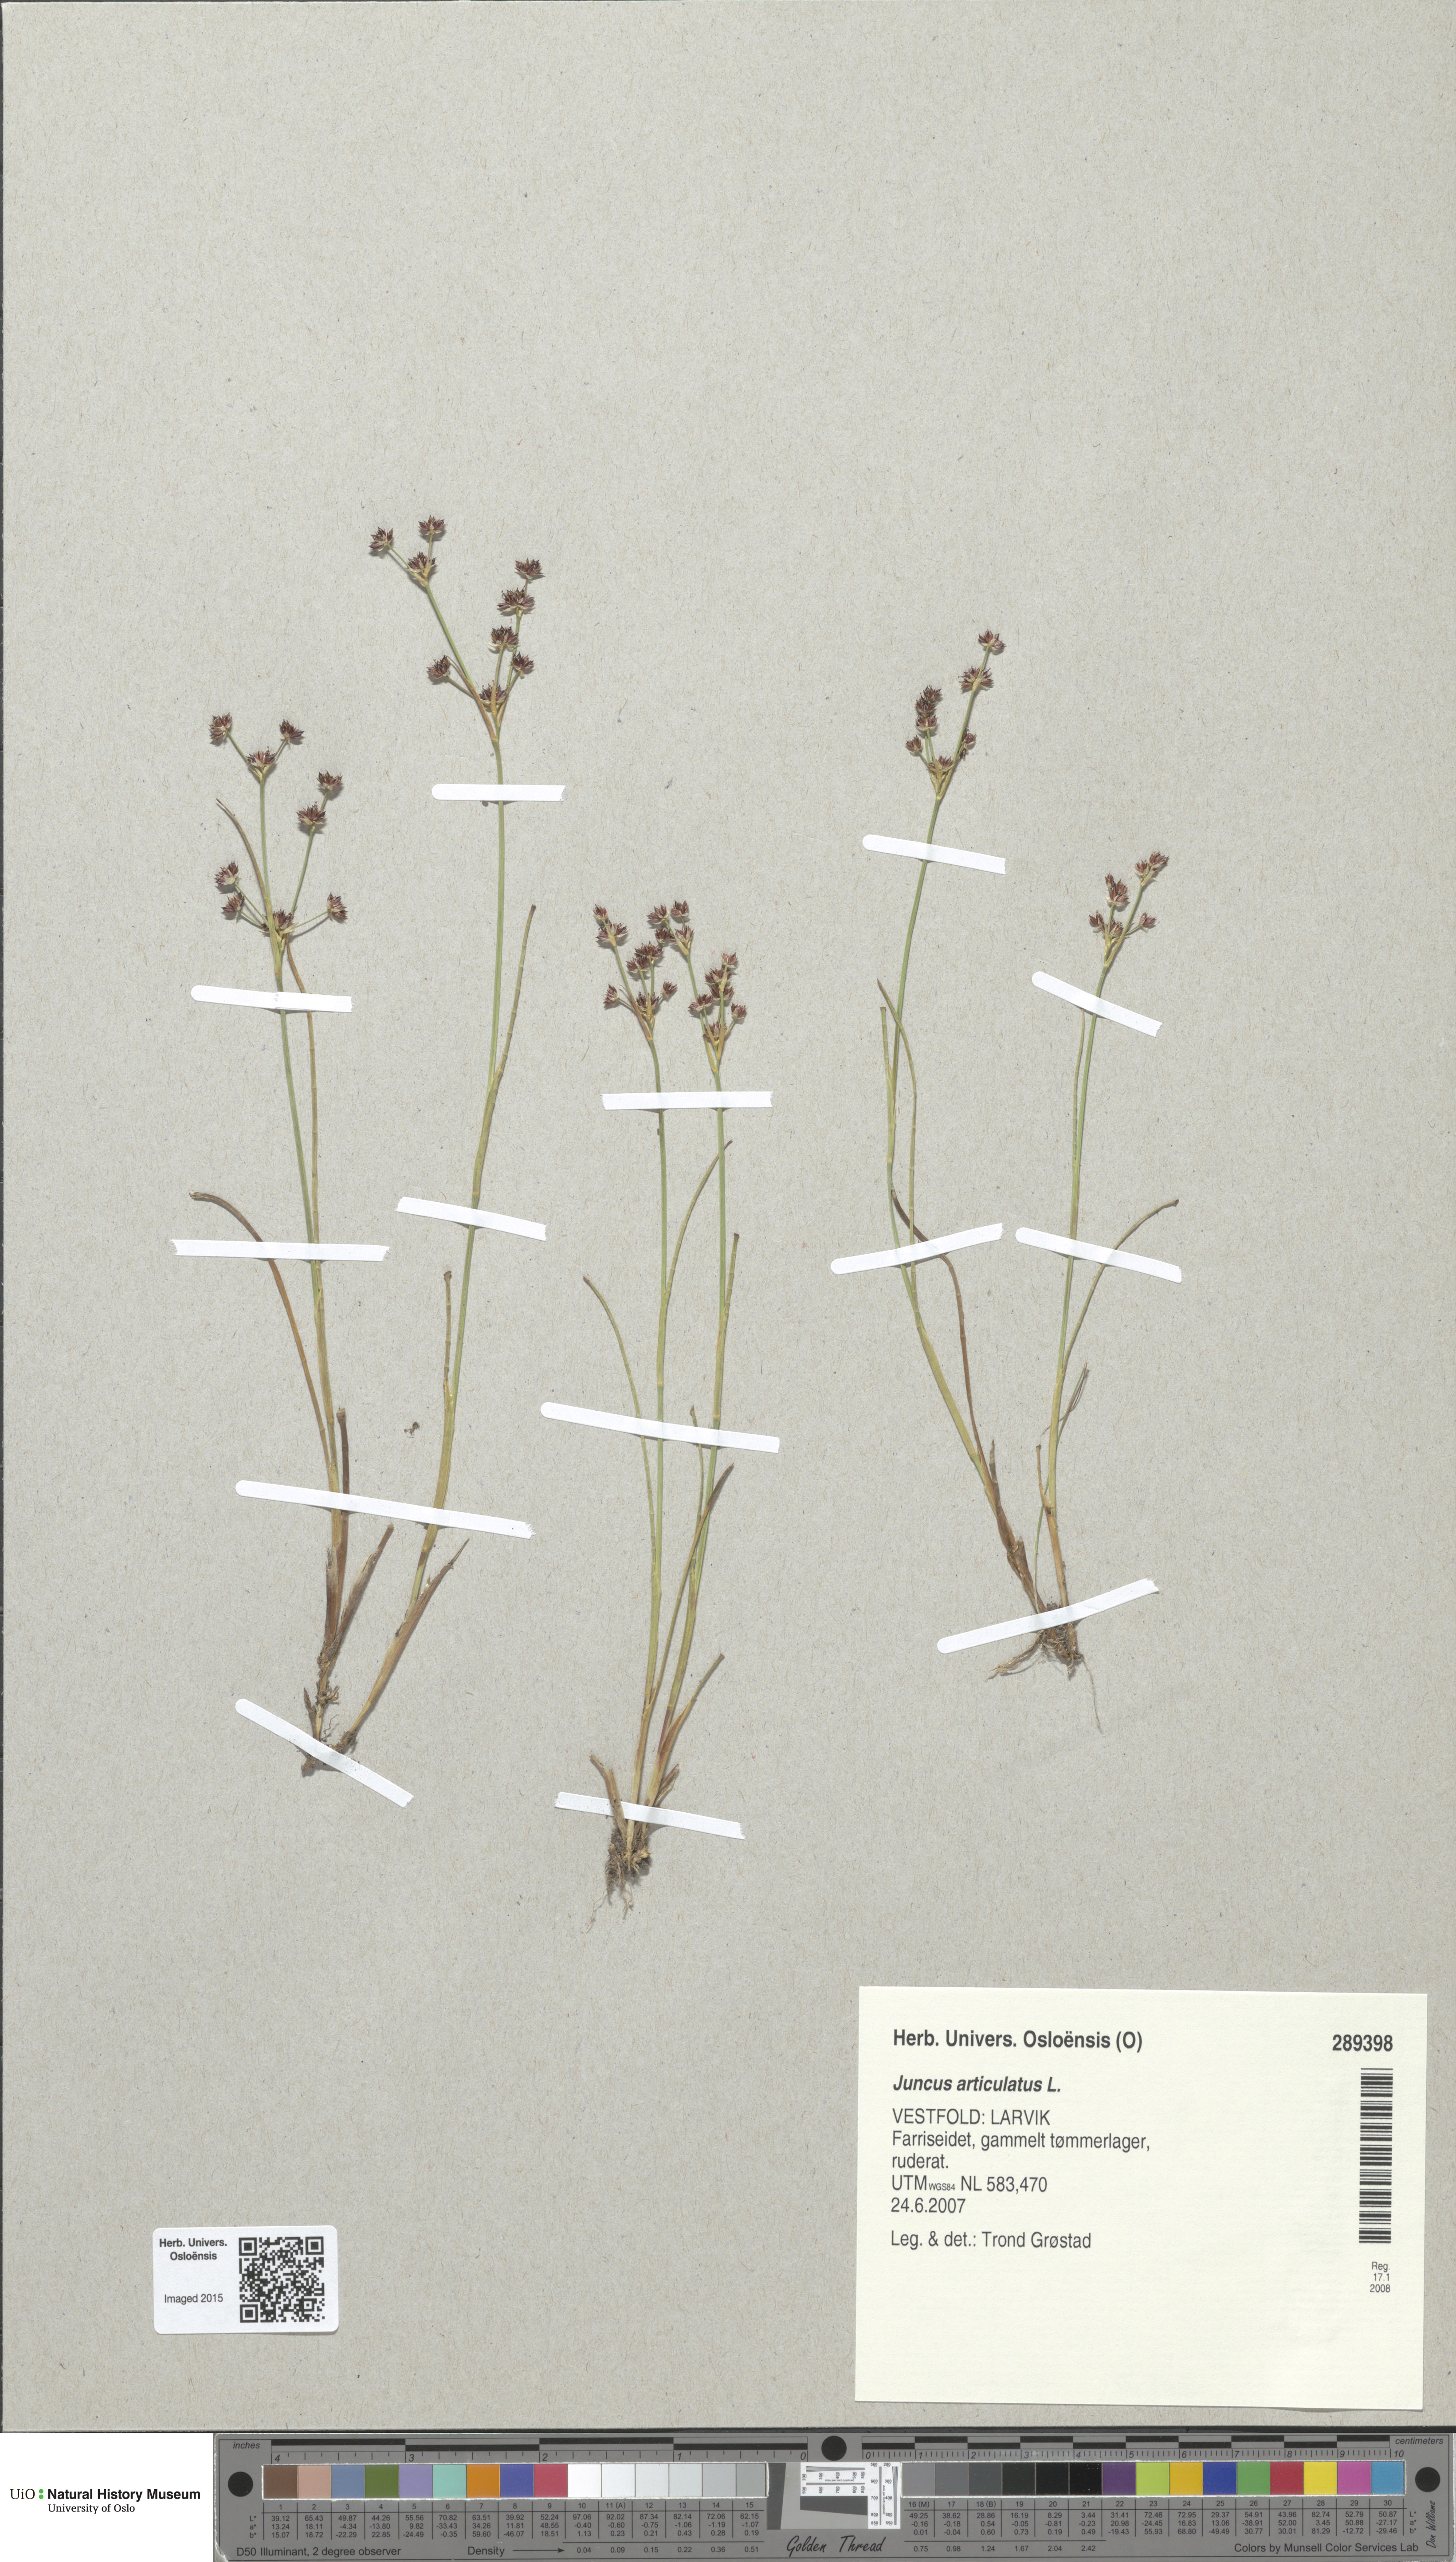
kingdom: Plantae
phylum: Tracheophyta
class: Liliopsida
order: Poales
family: Juncaceae
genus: Juncus
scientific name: Juncus articulatus
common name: Jointed rush
